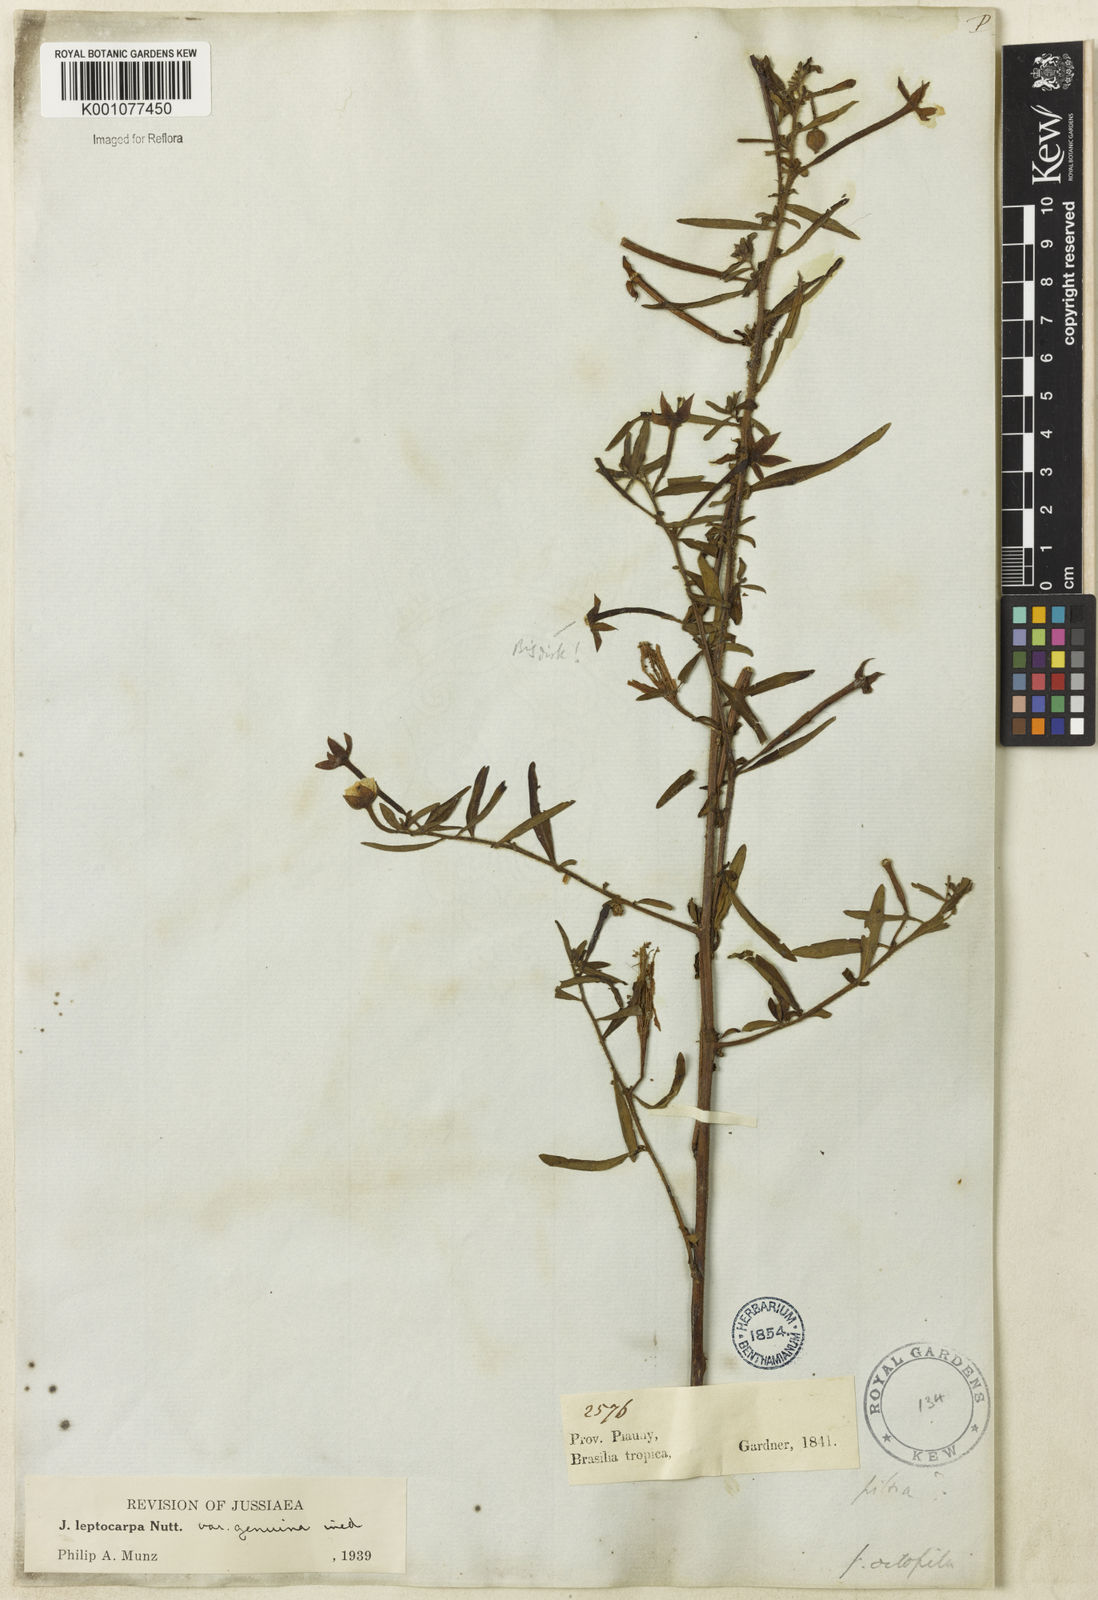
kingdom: Plantae
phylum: Tracheophyta
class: Magnoliopsida
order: Myrtales
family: Onagraceae
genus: Ludwigia
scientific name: Ludwigia leptocarpa
